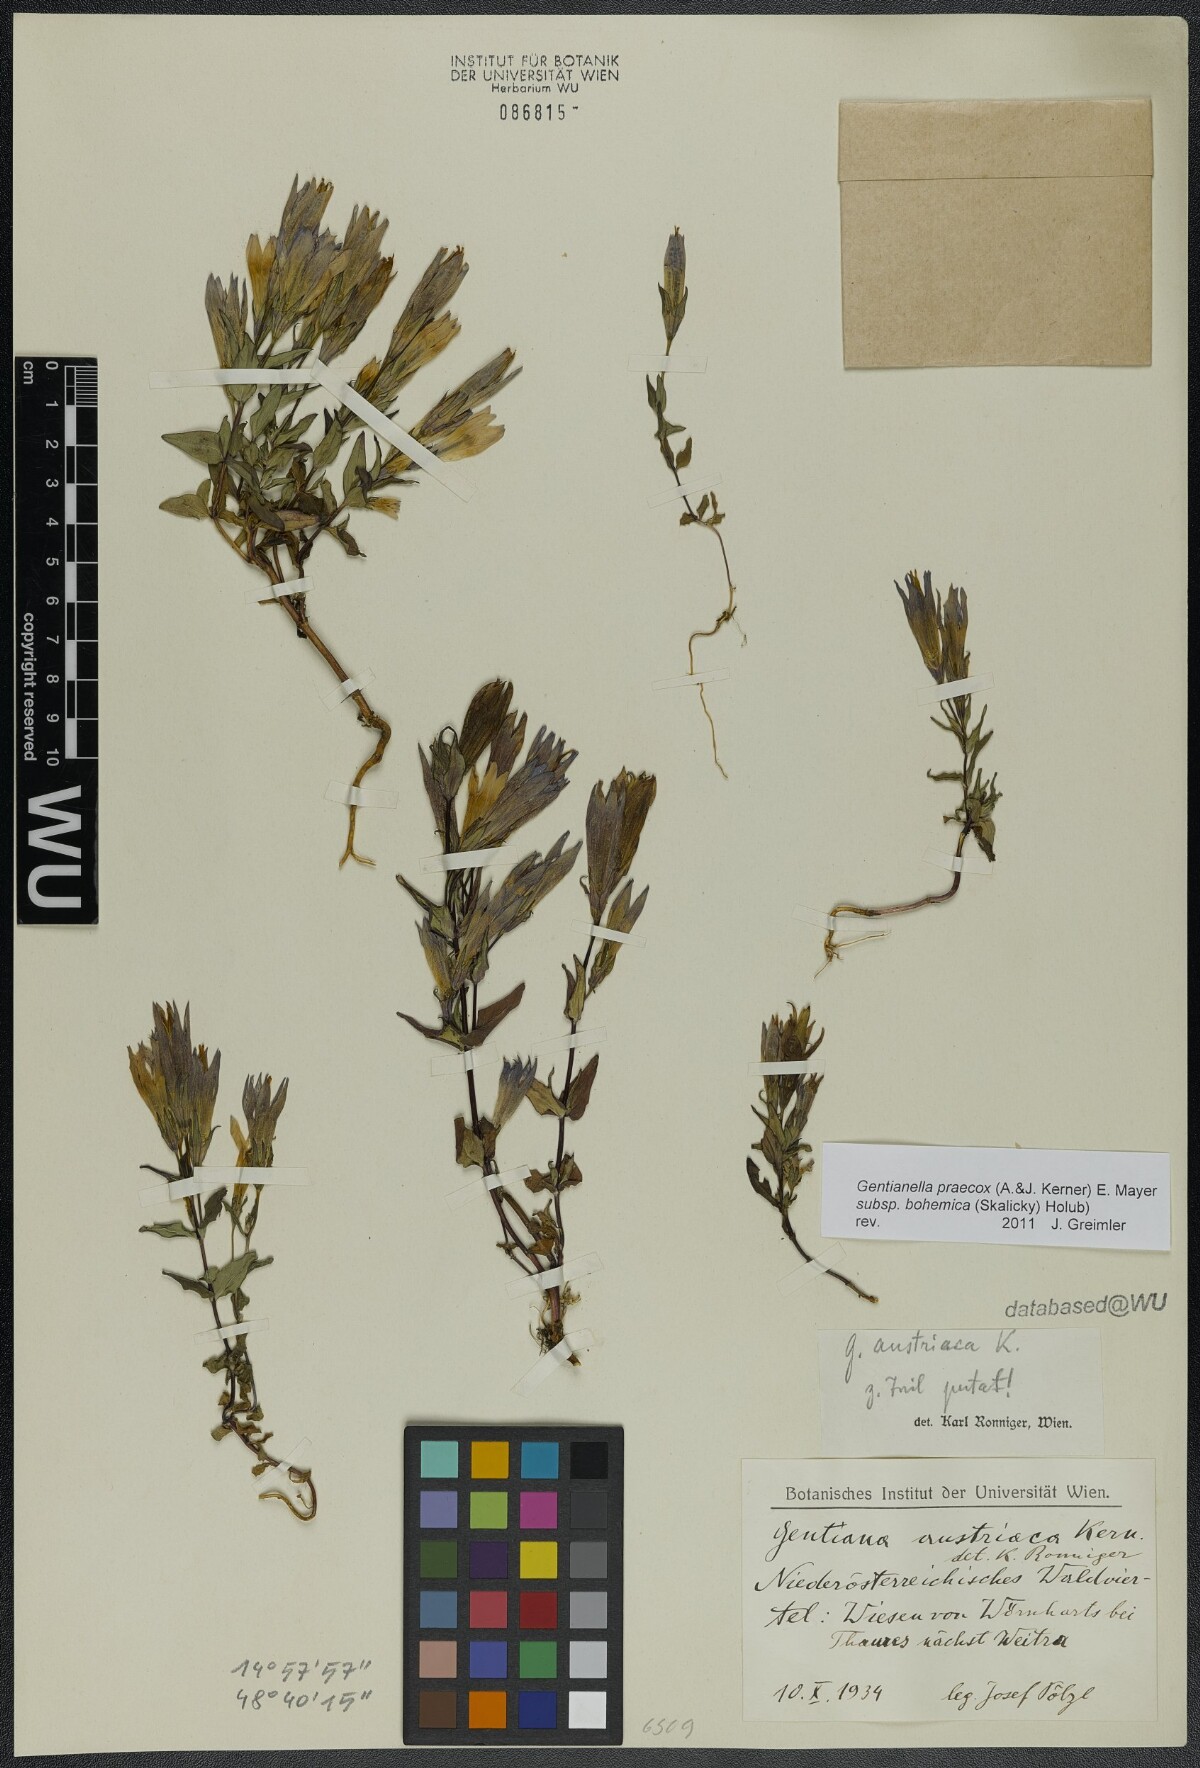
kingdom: Plantae
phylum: Tracheophyta
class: Magnoliopsida
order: Gentianales
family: Gentianaceae
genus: Gentianella
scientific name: Gentianella praecox
